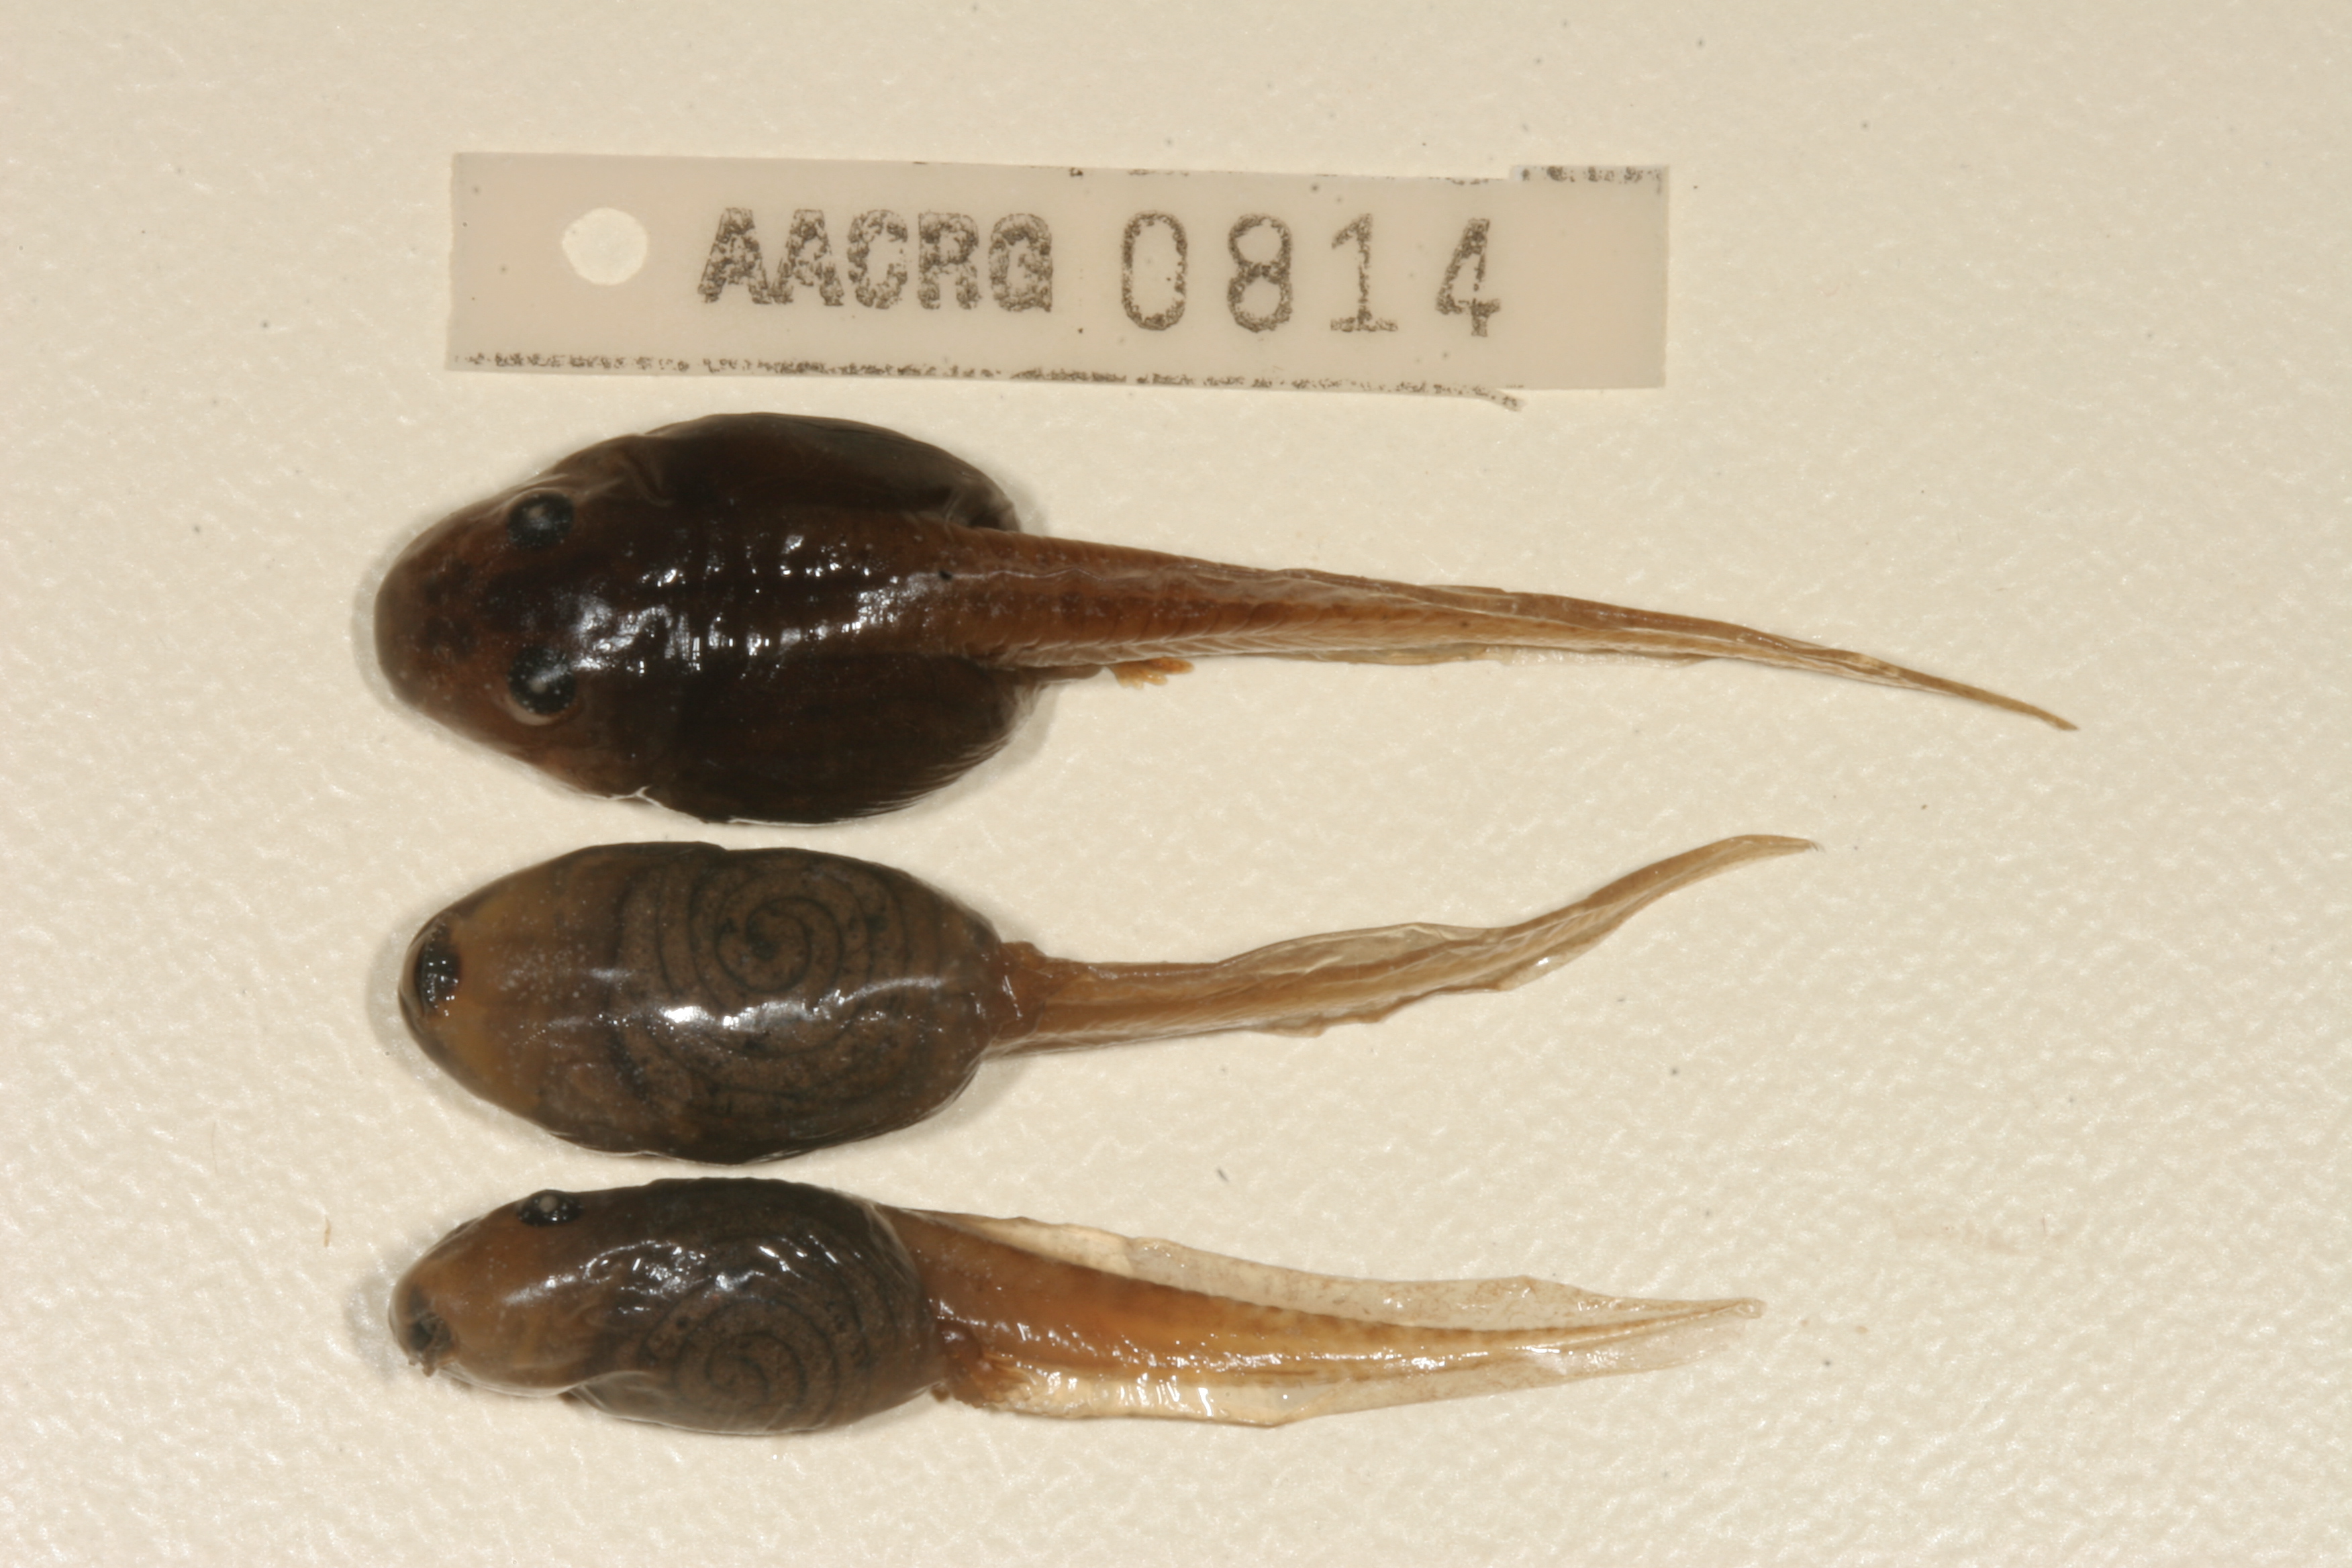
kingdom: Animalia
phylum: Chordata
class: Amphibia
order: Anura
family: Pyxicephalidae
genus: Strongylopus
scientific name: Strongylopus grayii
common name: Gray's stream frog
